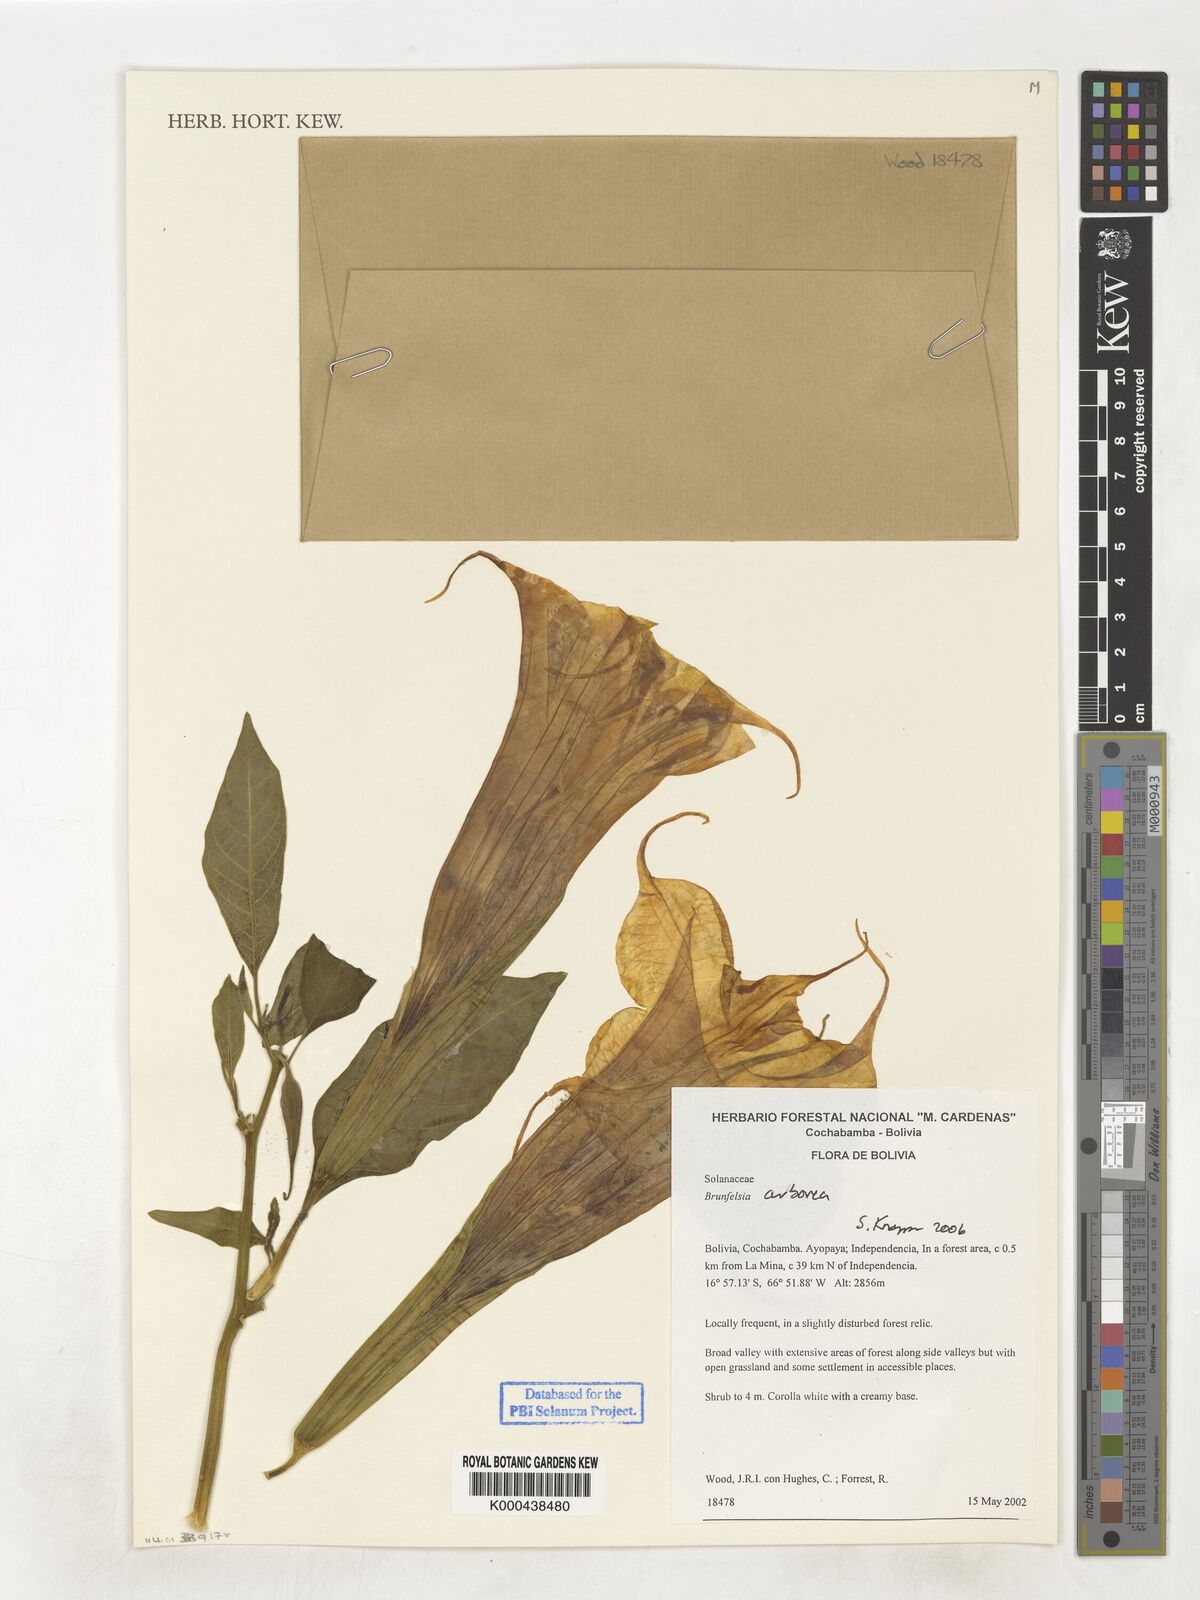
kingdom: Plantae
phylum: Tracheophyta
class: Magnoliopsida
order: Solanales
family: Solanaceae
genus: Brugmansia
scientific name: Brugmansia arborea
